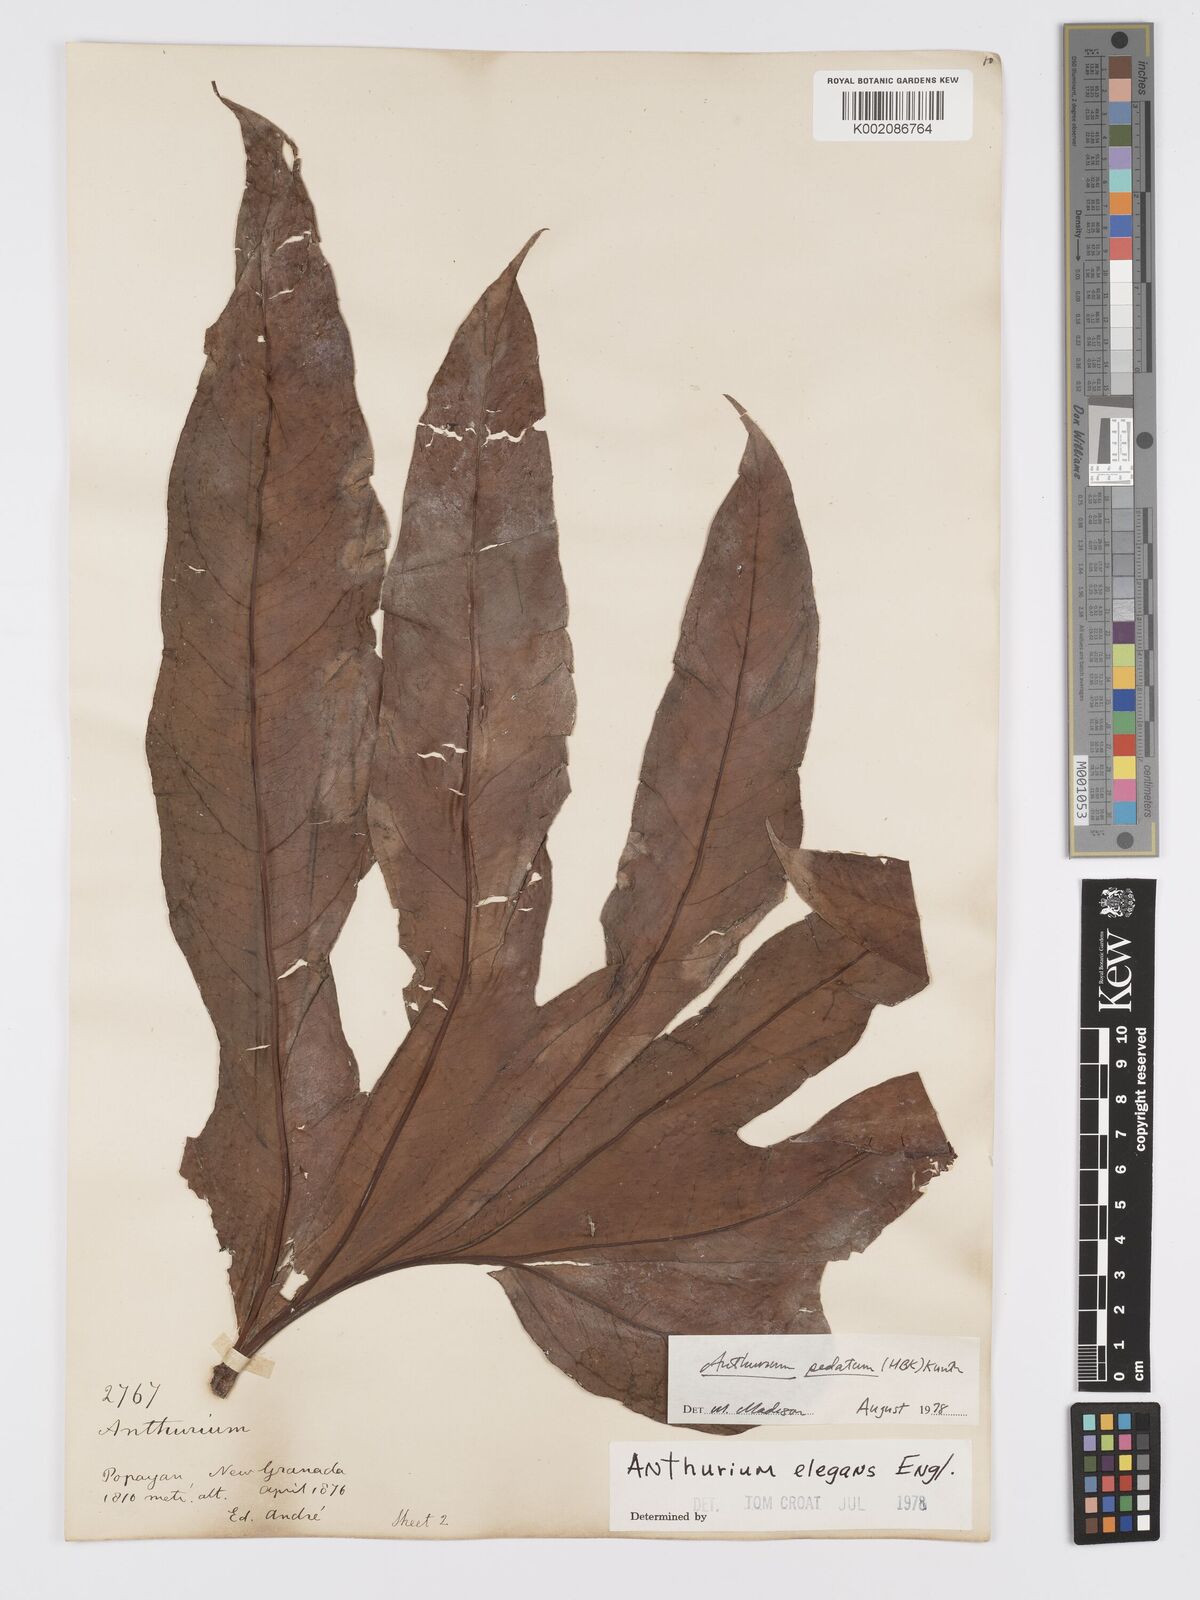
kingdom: Plantae
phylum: Tracheophyta
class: Liliopsida
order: Alismatales
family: Araceae
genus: Anthurium
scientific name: Anthurium pedatum
